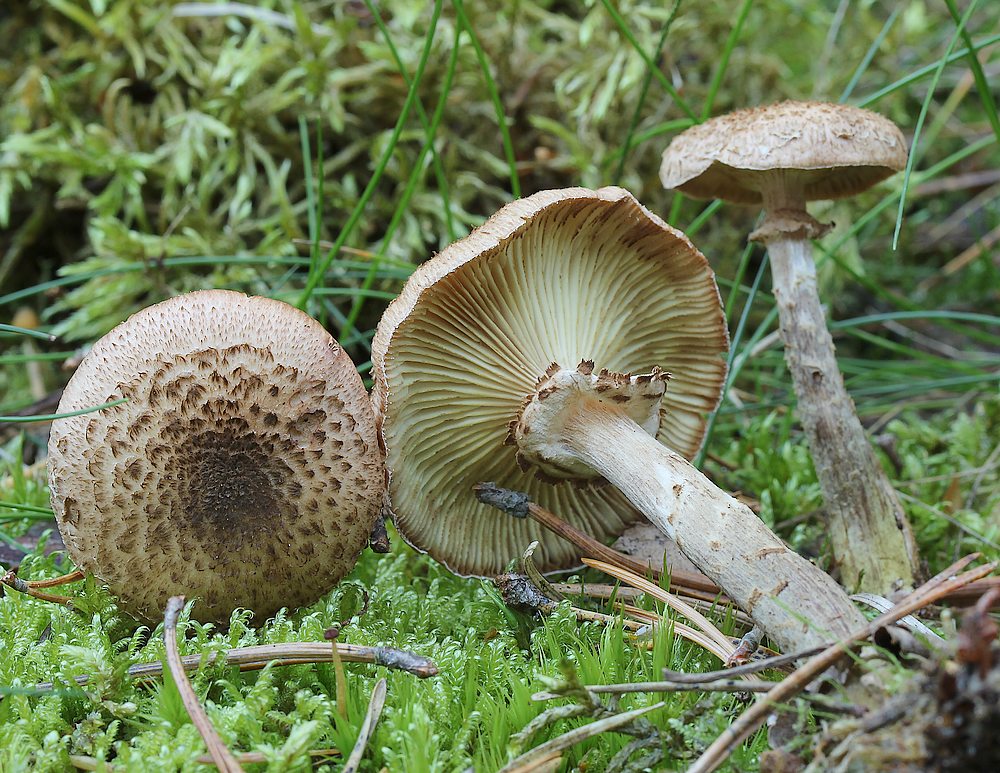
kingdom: Fungi
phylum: Basidiomycota
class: Agaricomycetes
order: Agaricales
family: Physalacriaceae
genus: Armillaria
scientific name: Armillaria ostoyae
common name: mørk honningsvamp
